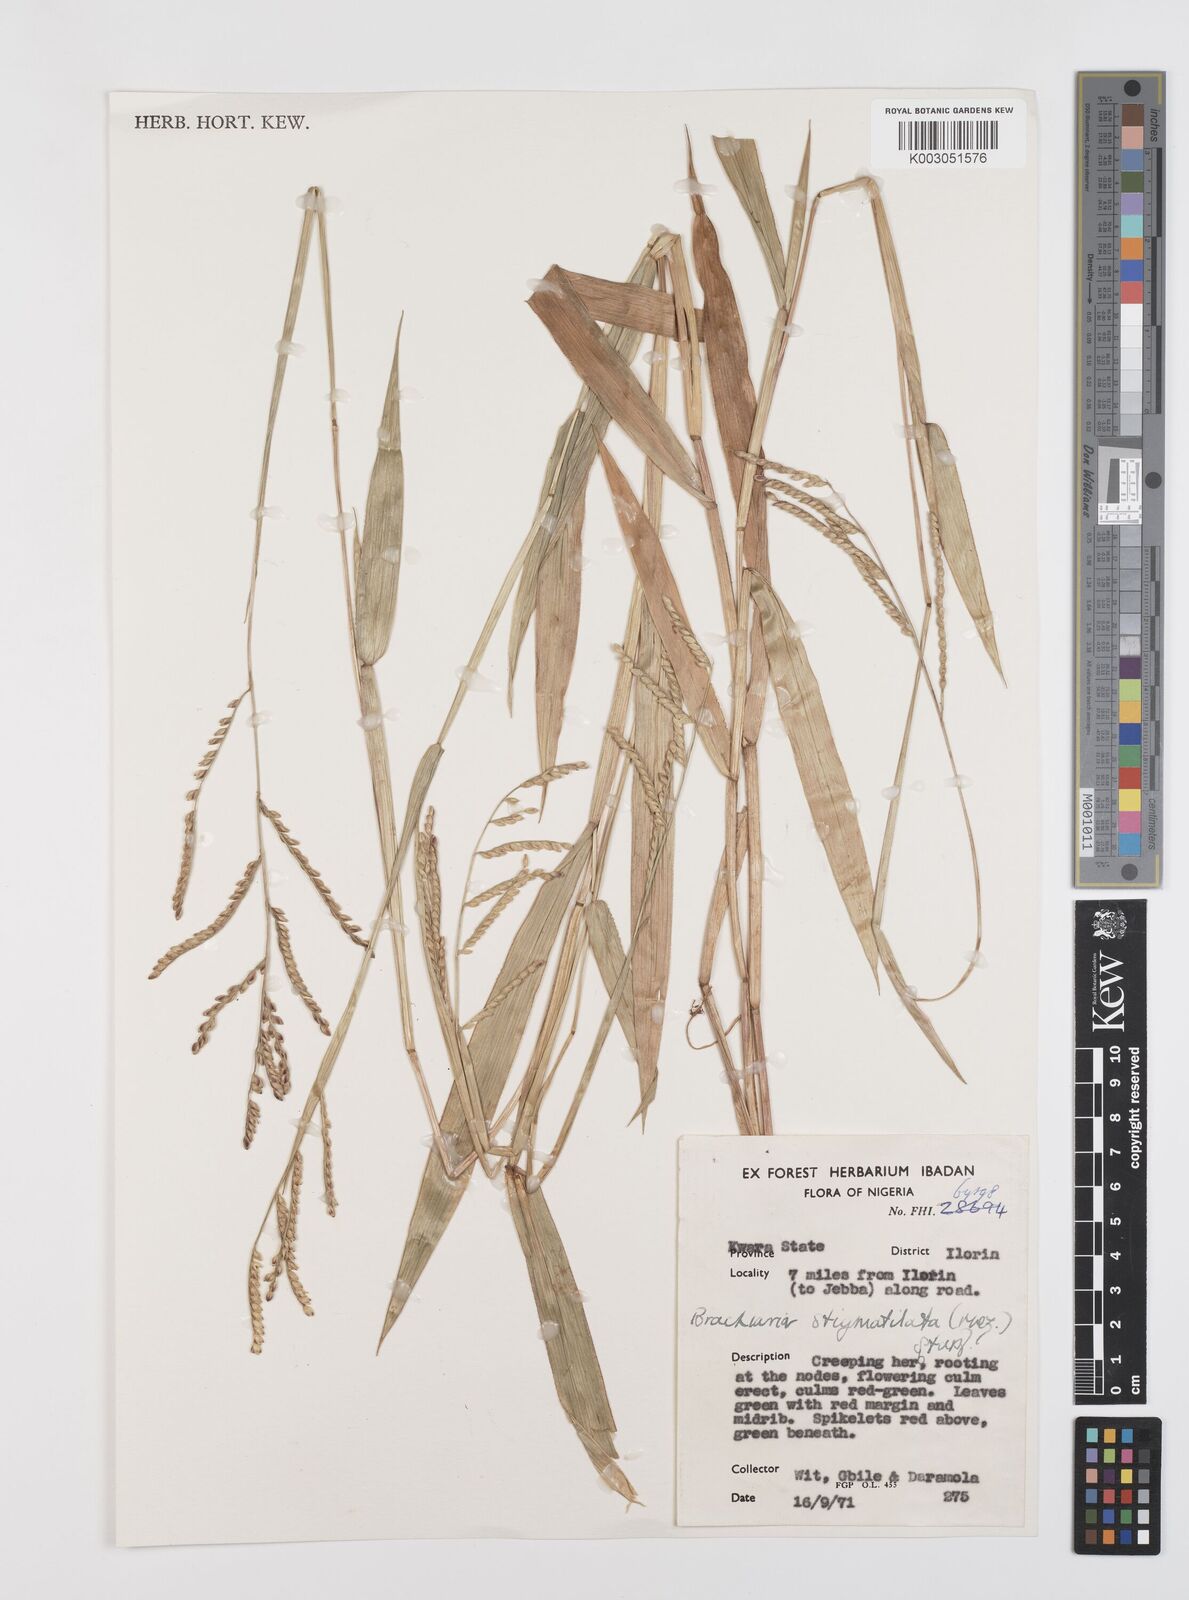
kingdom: Plantae
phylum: Tracheophyta
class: Liliopsida
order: Poales
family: Poaceae
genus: Urochloa
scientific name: Urochloa stigmatisata
